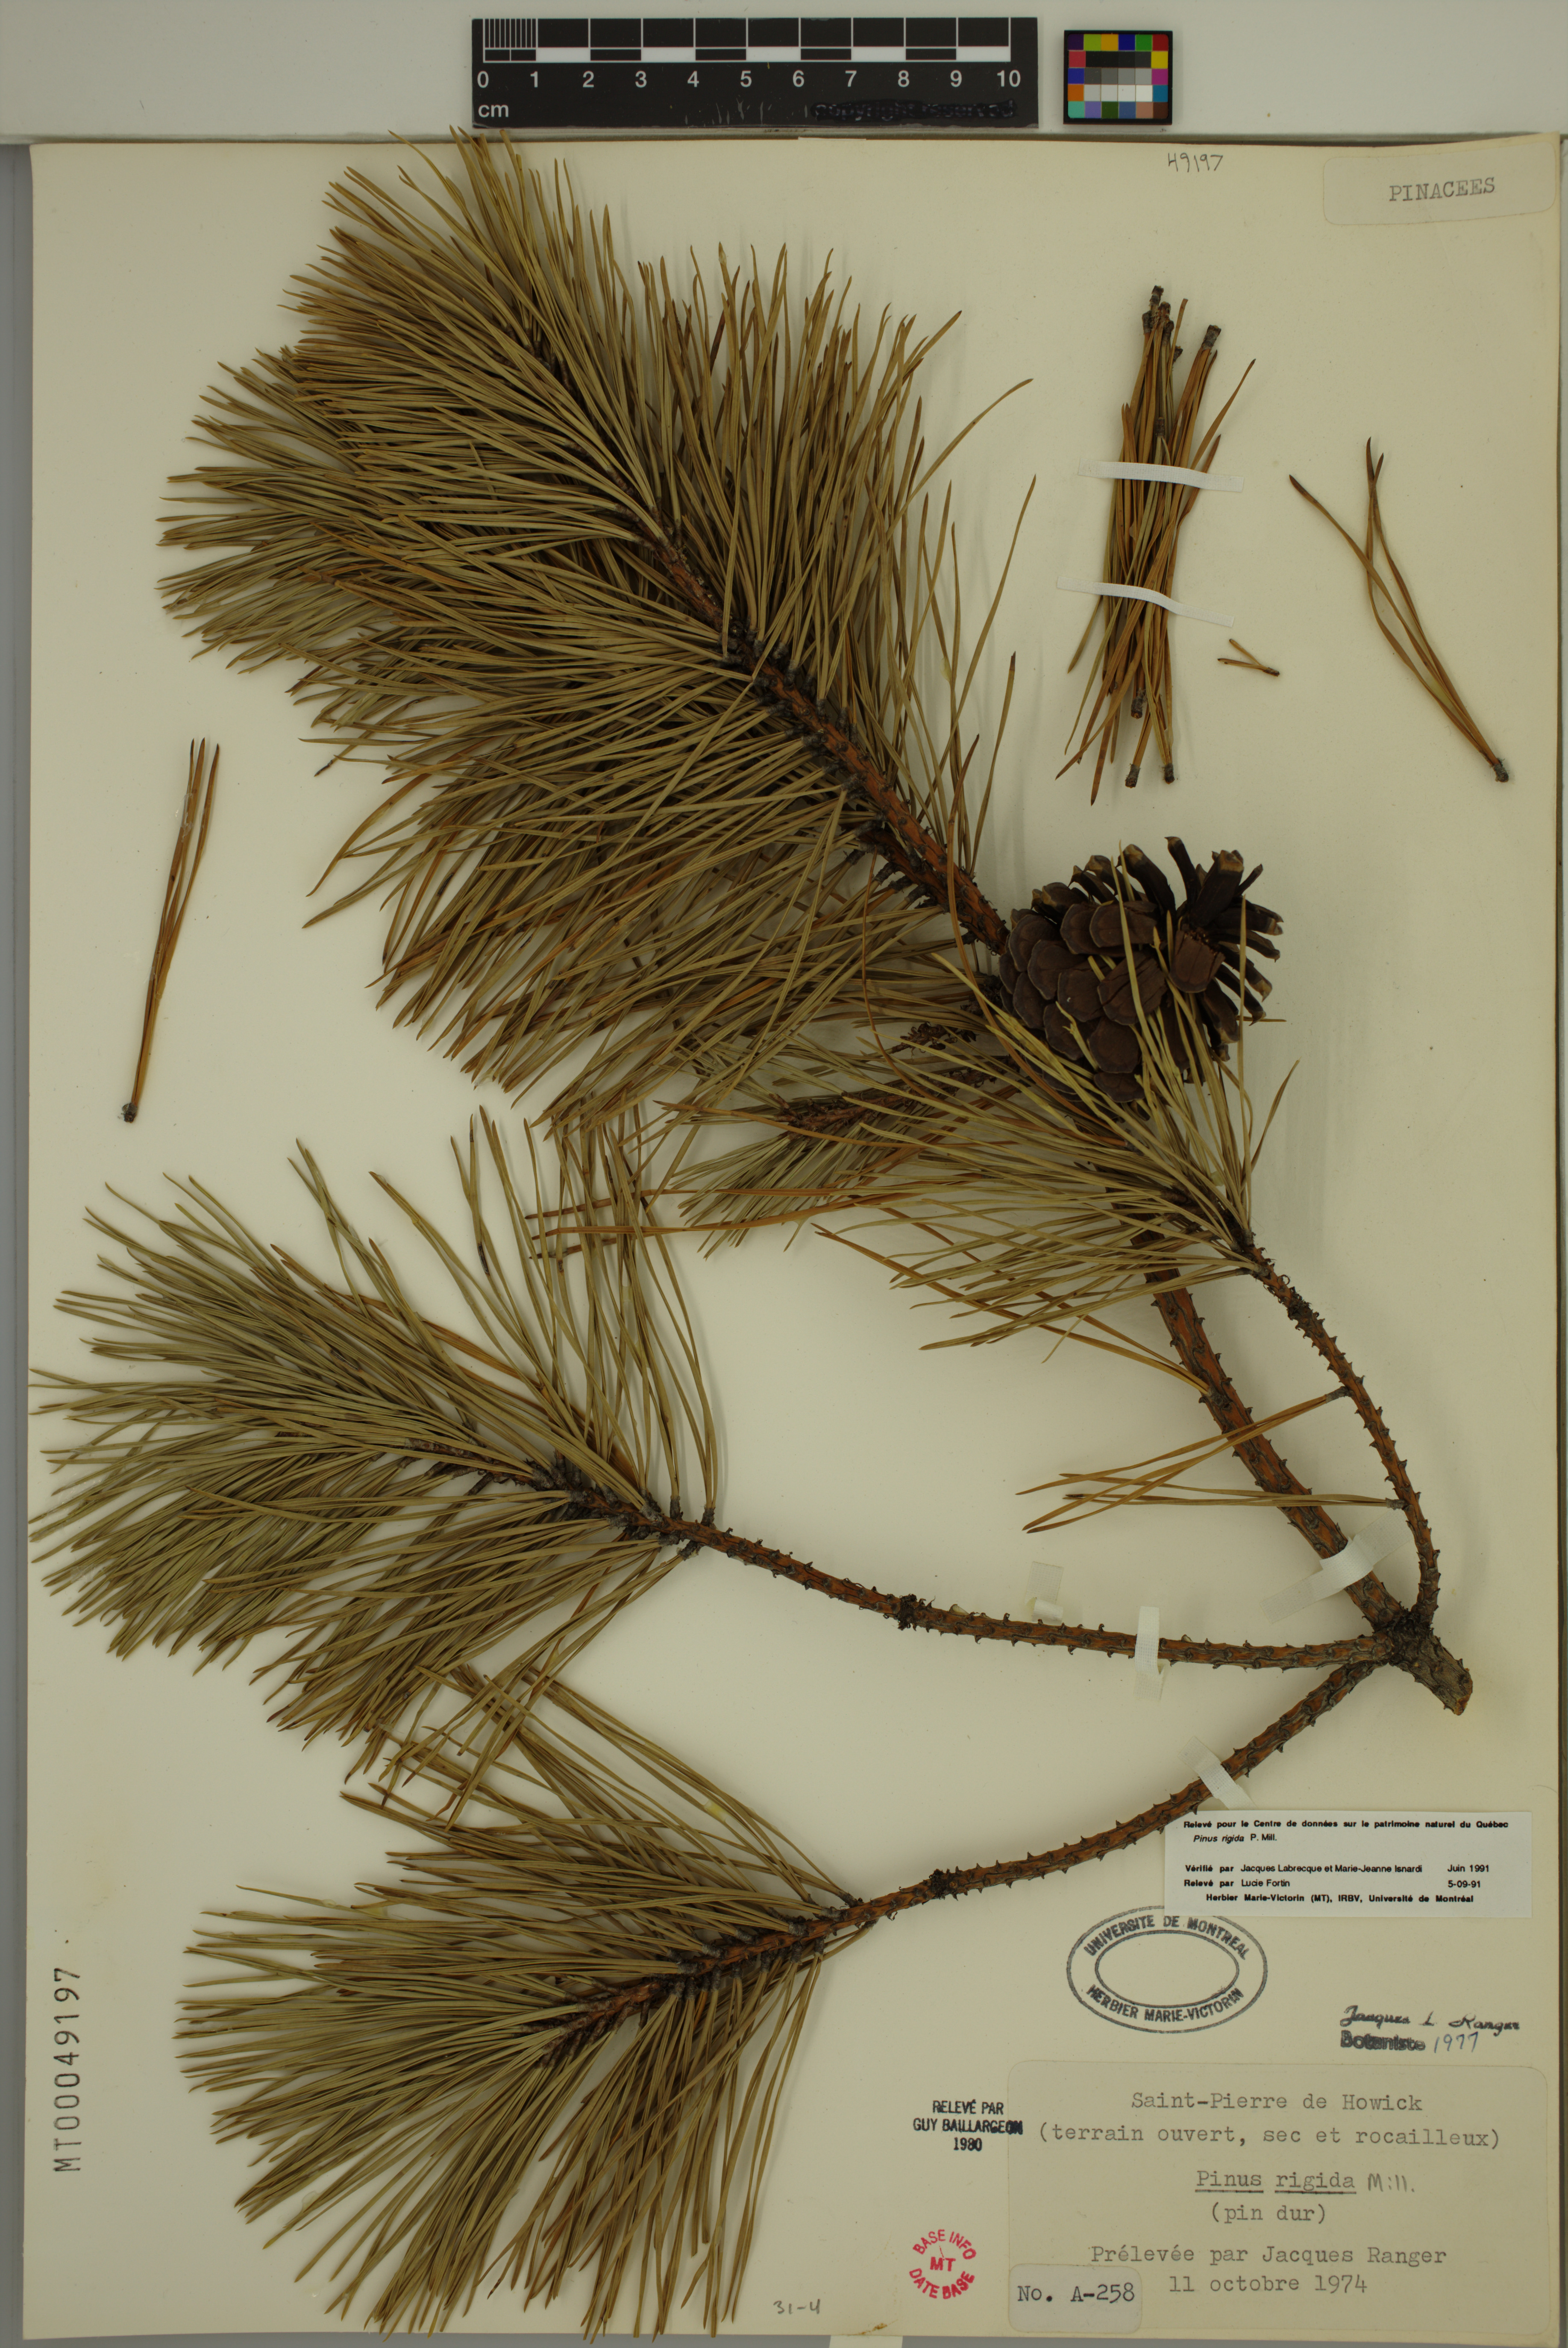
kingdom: Plantae
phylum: Tracheophyta
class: Pinopsida
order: Pinales
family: Pinaceae
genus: Pinus
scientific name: Pinus rigida
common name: Pitch pine
